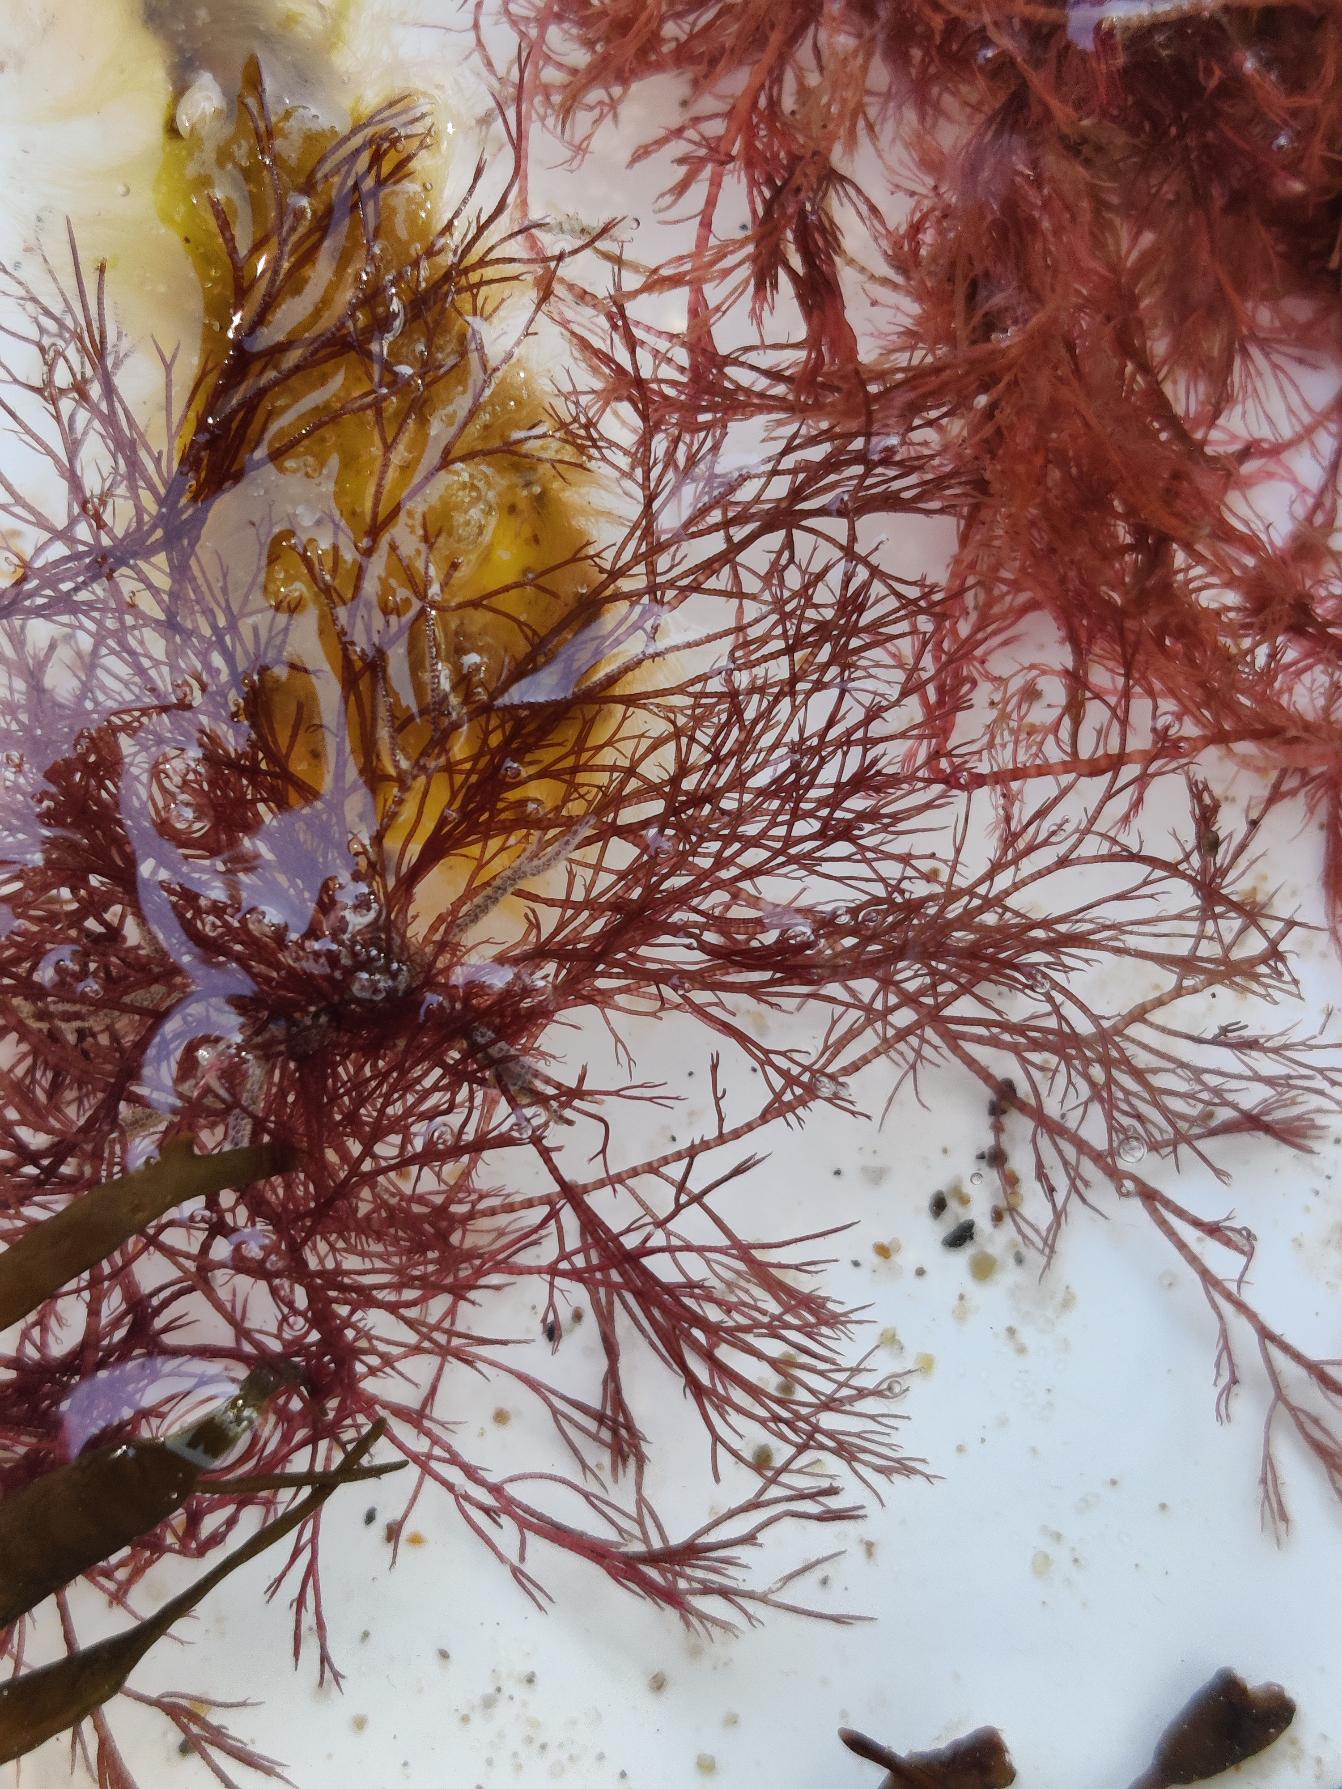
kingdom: Plantae
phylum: Rhodophyta
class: Florideophyceae
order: Ceramiales
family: Ceramiaceae
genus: Ceramium
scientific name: Ceramium
